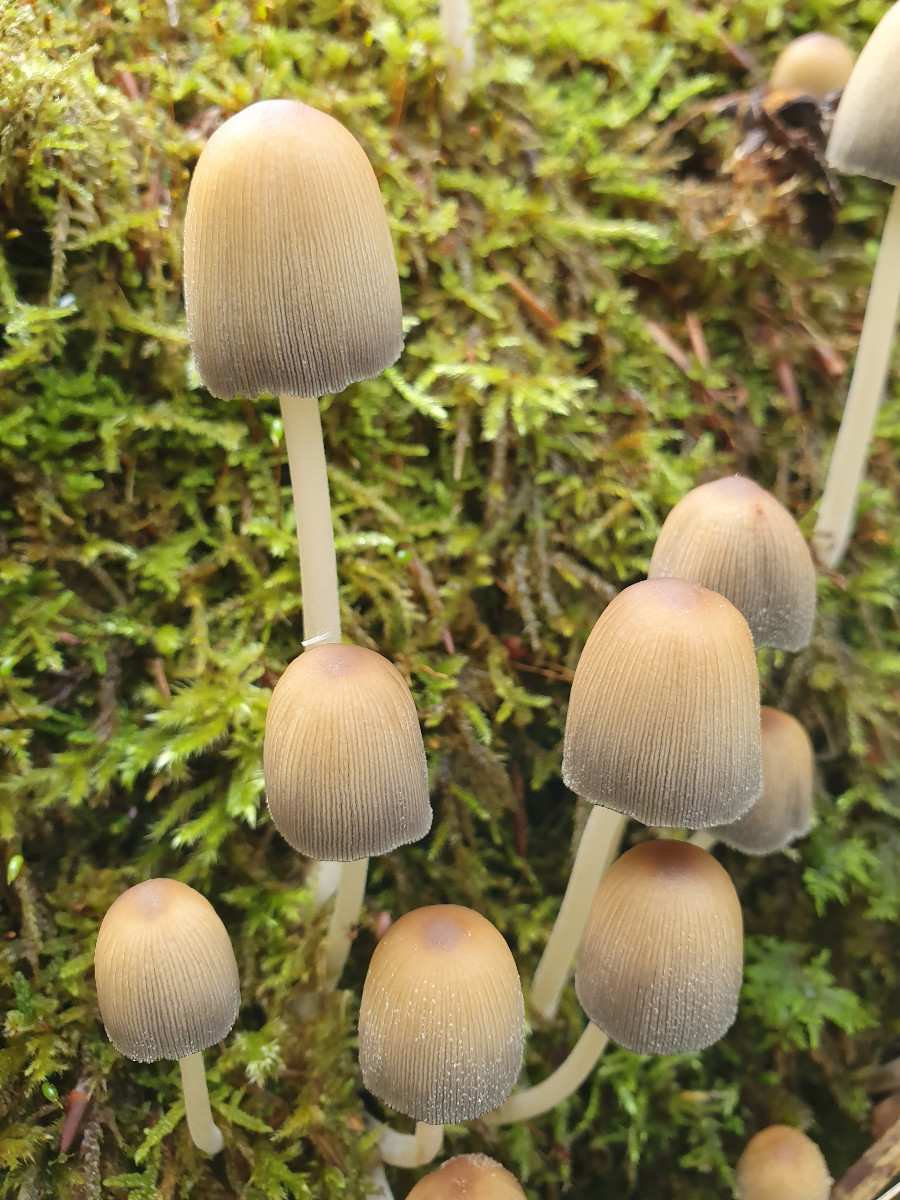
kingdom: Fungi
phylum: Basidiomycota
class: Agaricomycetes
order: Agaricales
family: Psathyrellaceae
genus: Coprinellus
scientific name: Coprinellus micaceus
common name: glimmer-blækhat
